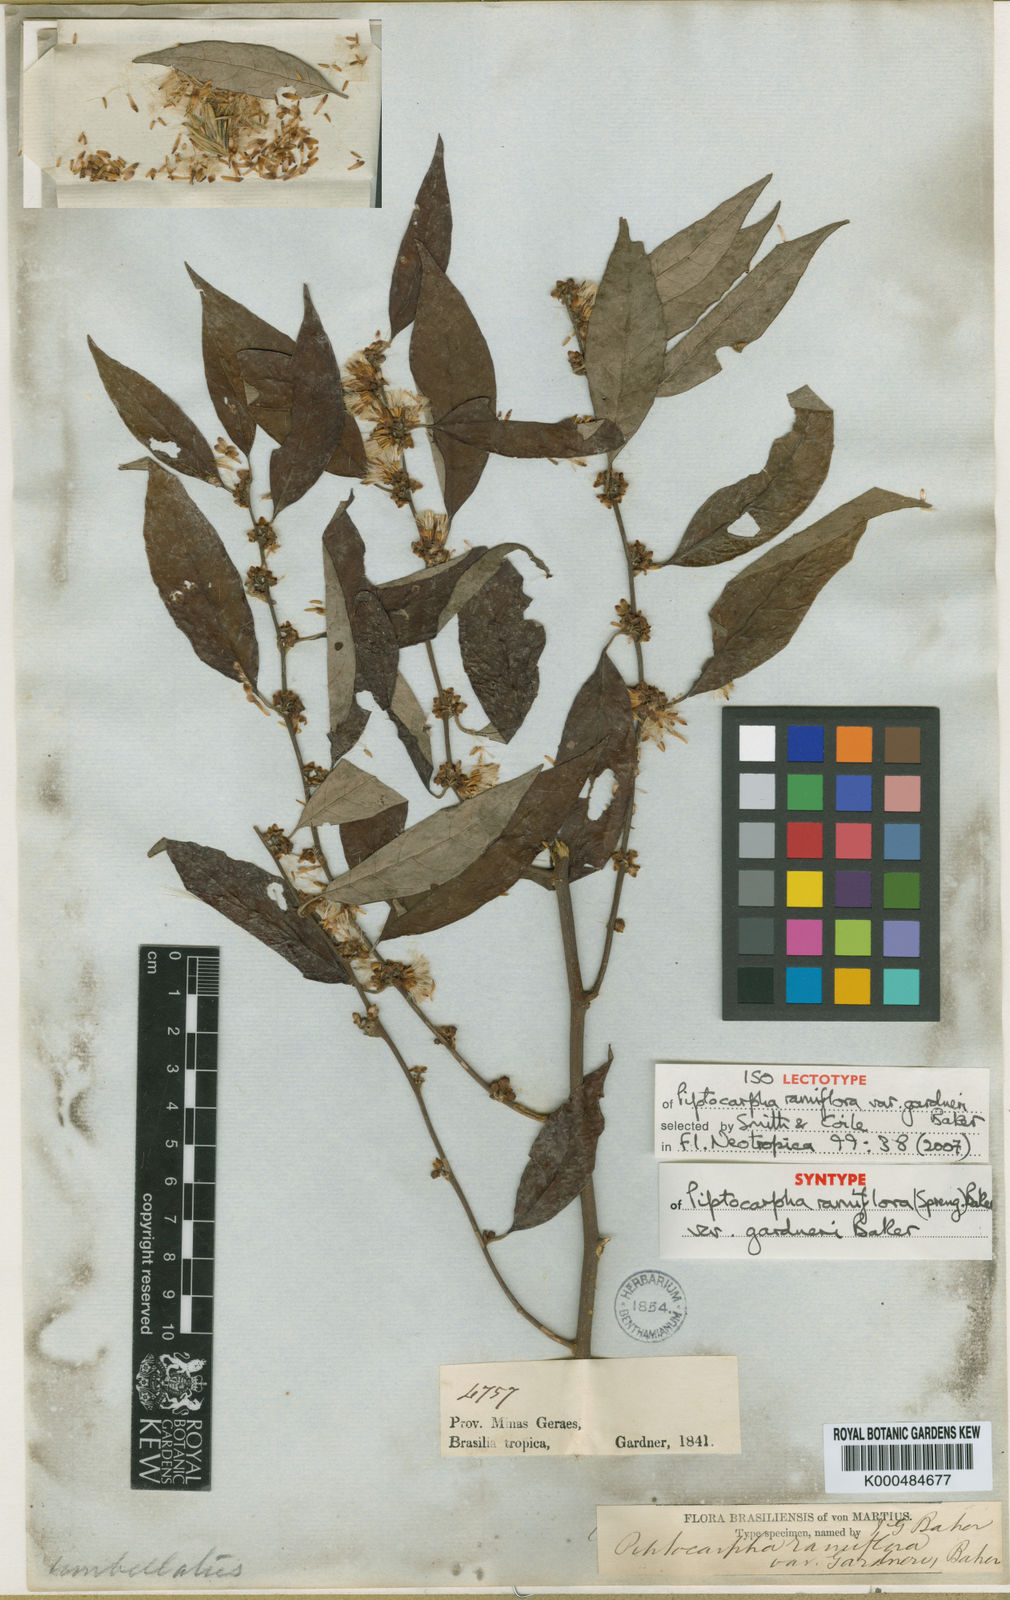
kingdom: Plantae
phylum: Tracheophyta
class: Magnoliopsida
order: Asterales
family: Asteraceae
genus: Piptocarpha
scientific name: Piptocarpha ramiflora
